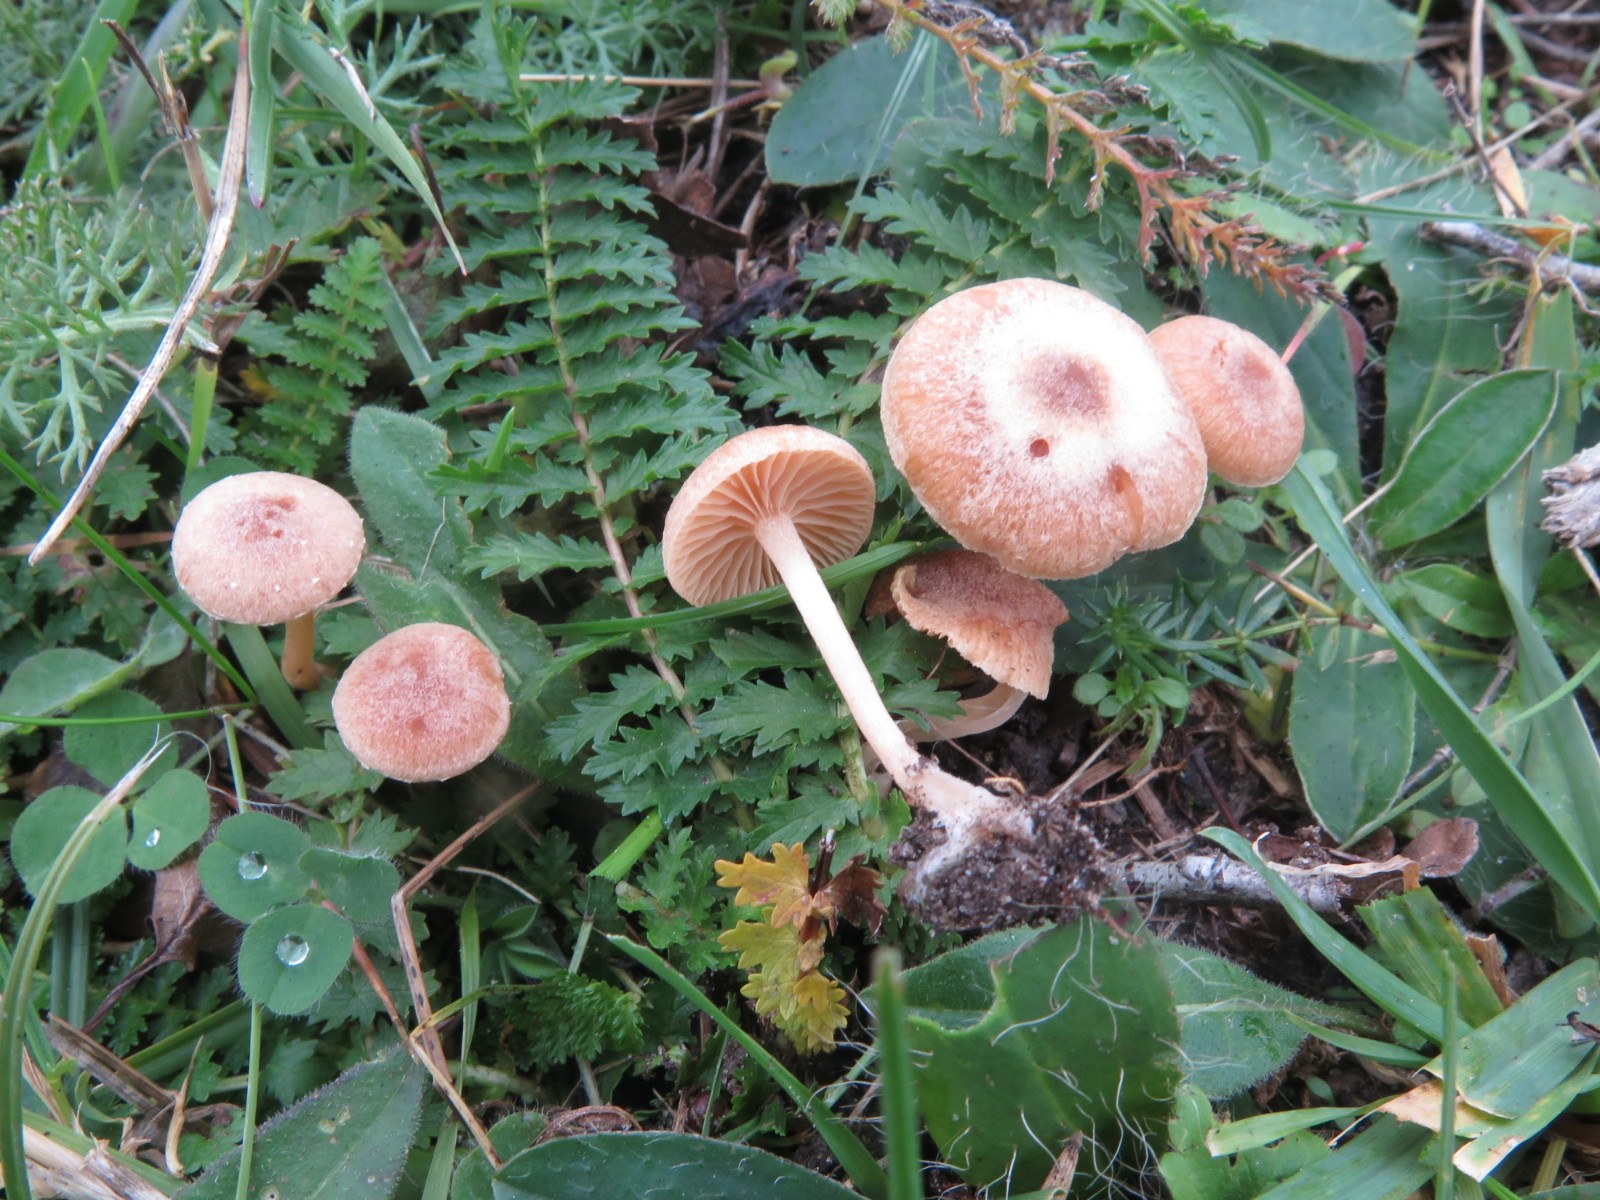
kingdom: Fungi
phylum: Basidiomycota
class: Agaricomycetes
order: Agaricales
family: Tubariaceae
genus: Tubaria
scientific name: Tubaria furfuracea
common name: kliddet fnughat
